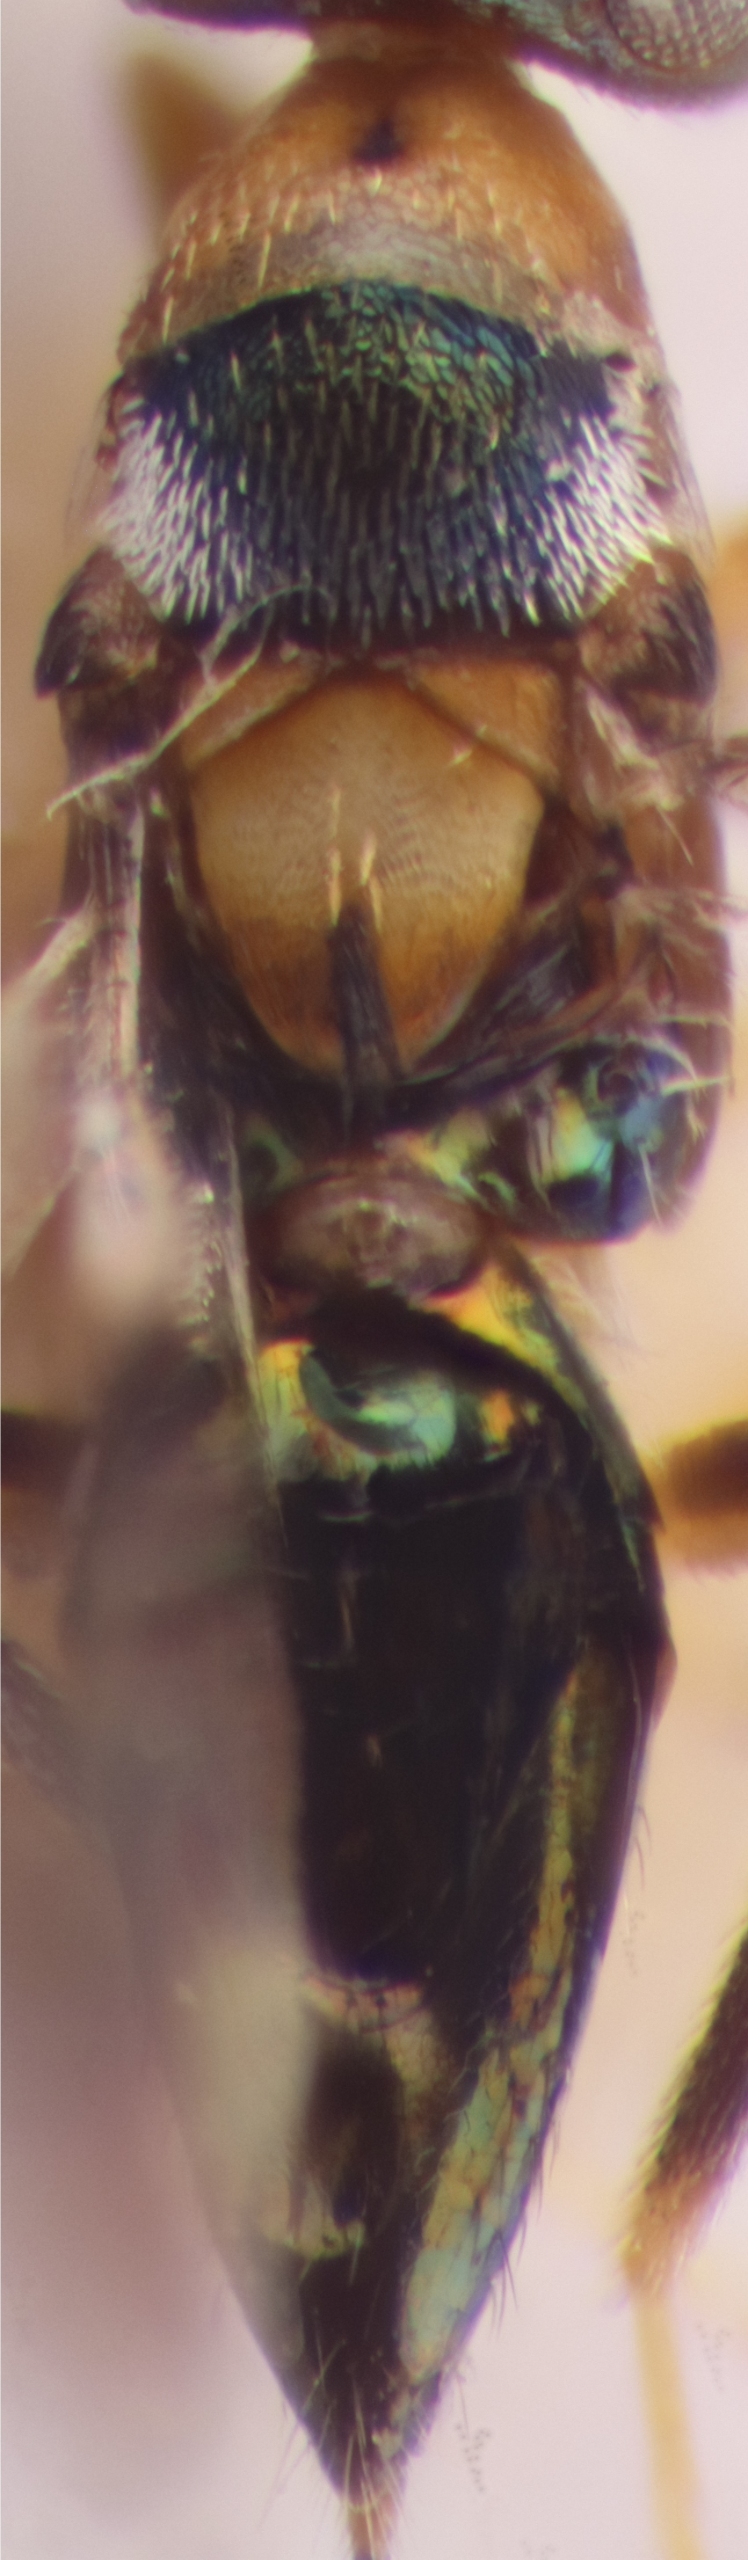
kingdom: Animalia
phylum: Arthropoda
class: Insecta
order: Hymenoptera
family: Encyrtidae
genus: Cheiloneurus
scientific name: Cheiloneurus elegans
